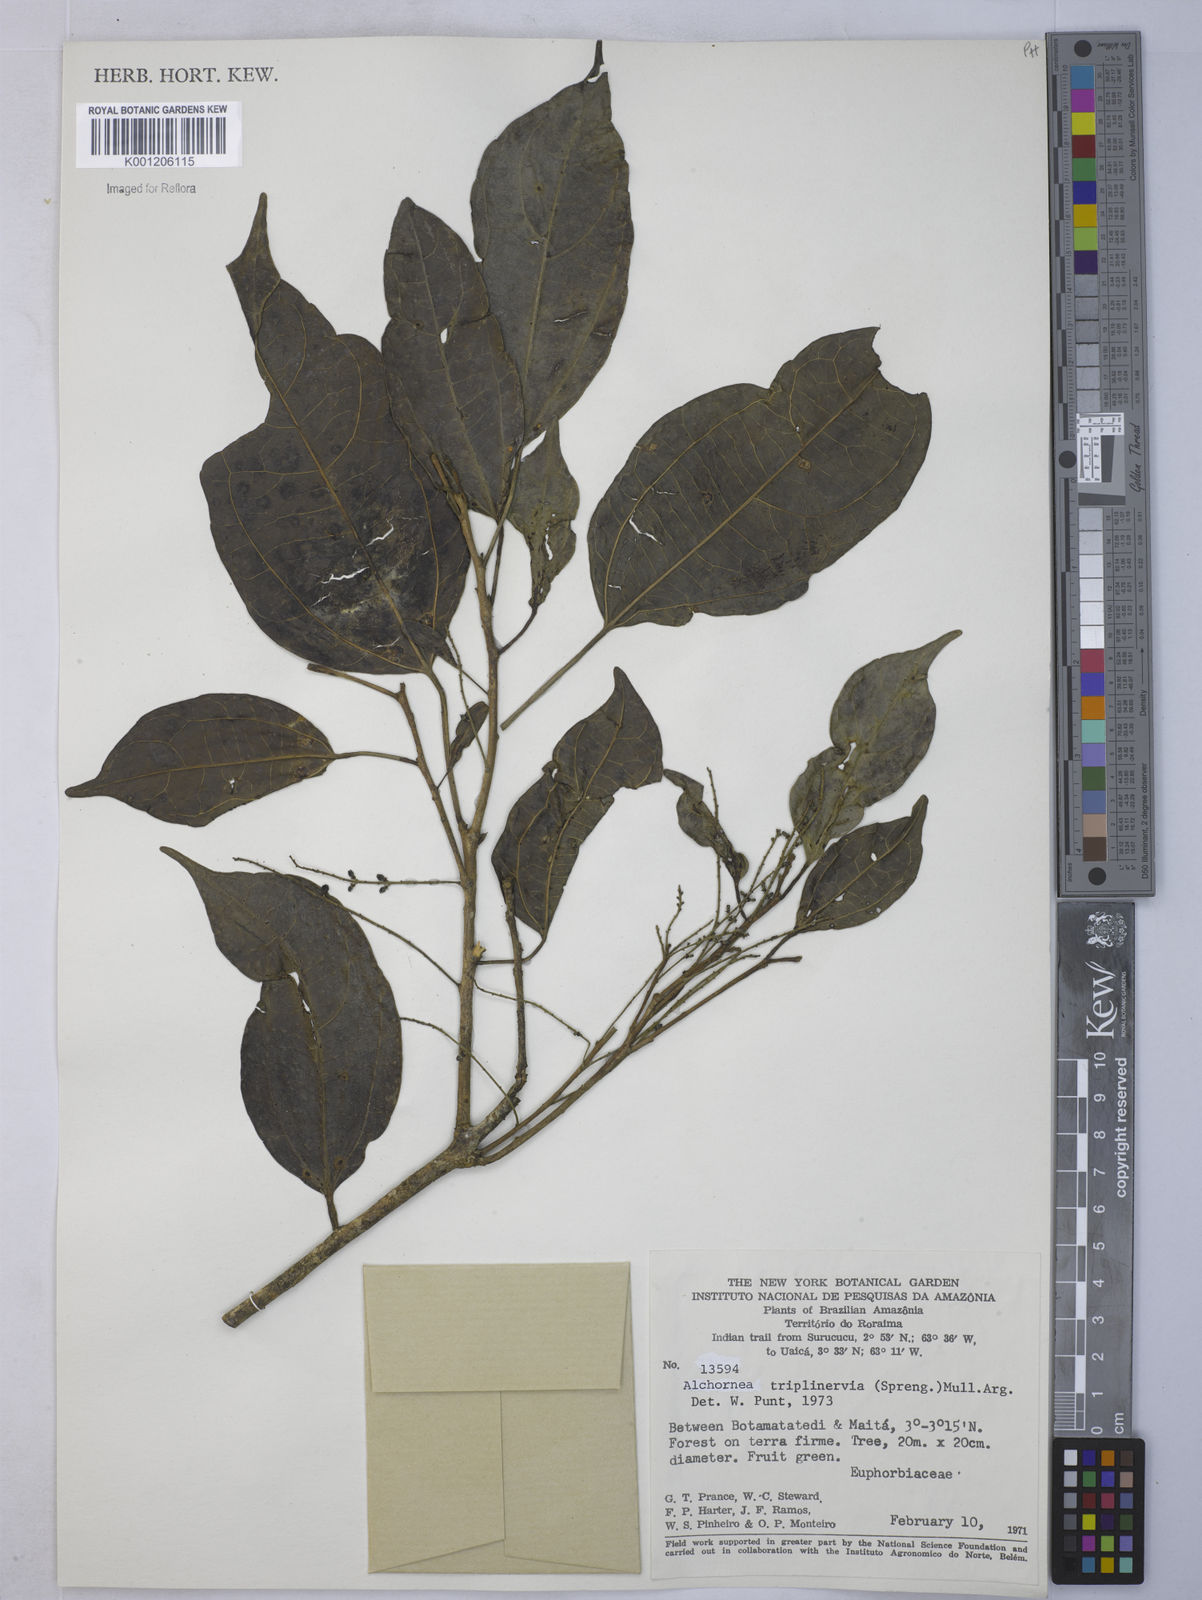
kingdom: Plantae
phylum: Tracheophyta
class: Magnoliopsida
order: Malpighiales
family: Euphorbiaceae
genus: Alchornea
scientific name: Alchornea
